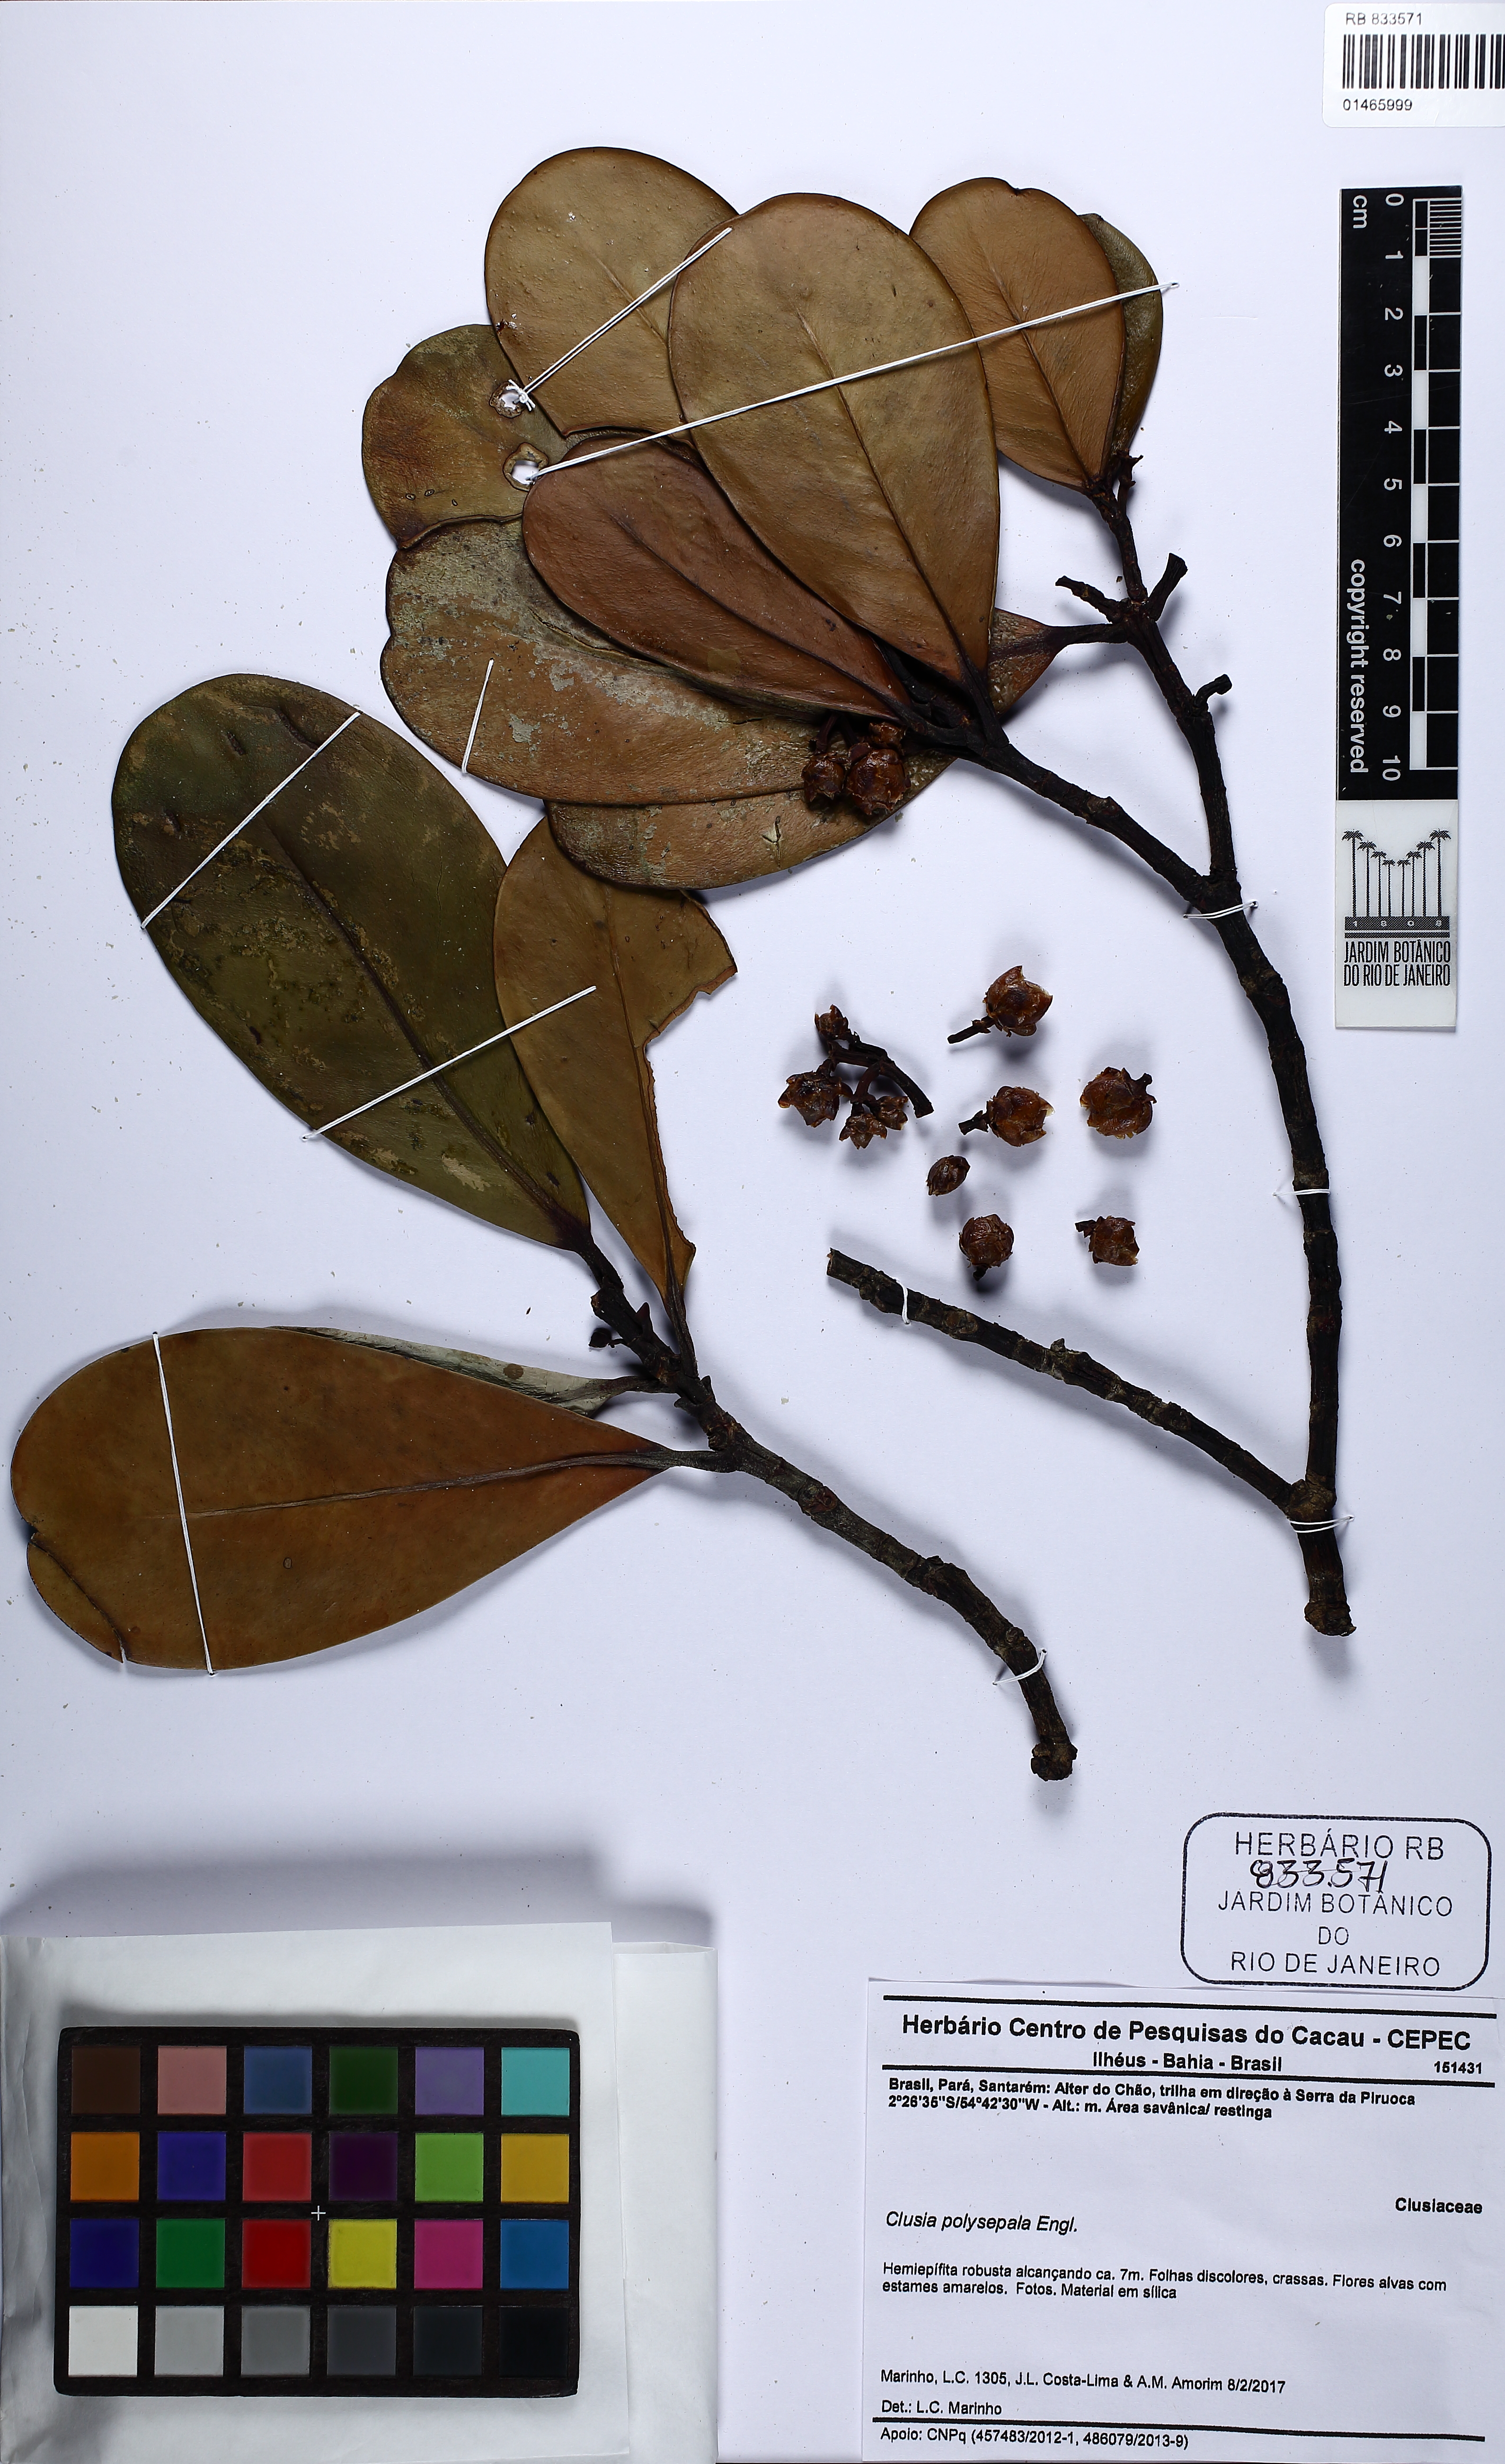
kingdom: Plantae
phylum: Tracheophyta
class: Magnoliopsida
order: Malpighiales
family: Clusiaceae
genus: Clusia
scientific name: Clusia polysepala
